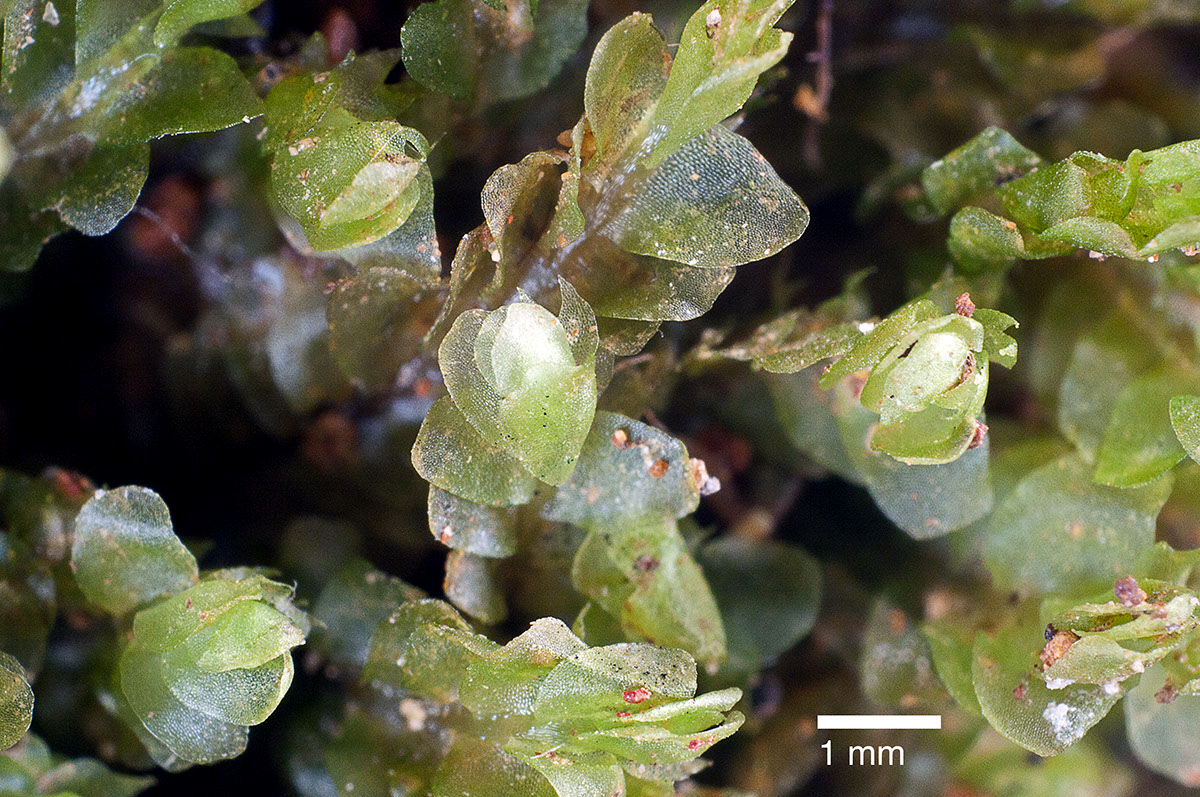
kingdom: Plantae
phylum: Marchantiophyta
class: Jungermanniopsida
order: Jungermanniales
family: Lophocoleaceae
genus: Pachyglossa
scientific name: Pachyglossa austrigena
